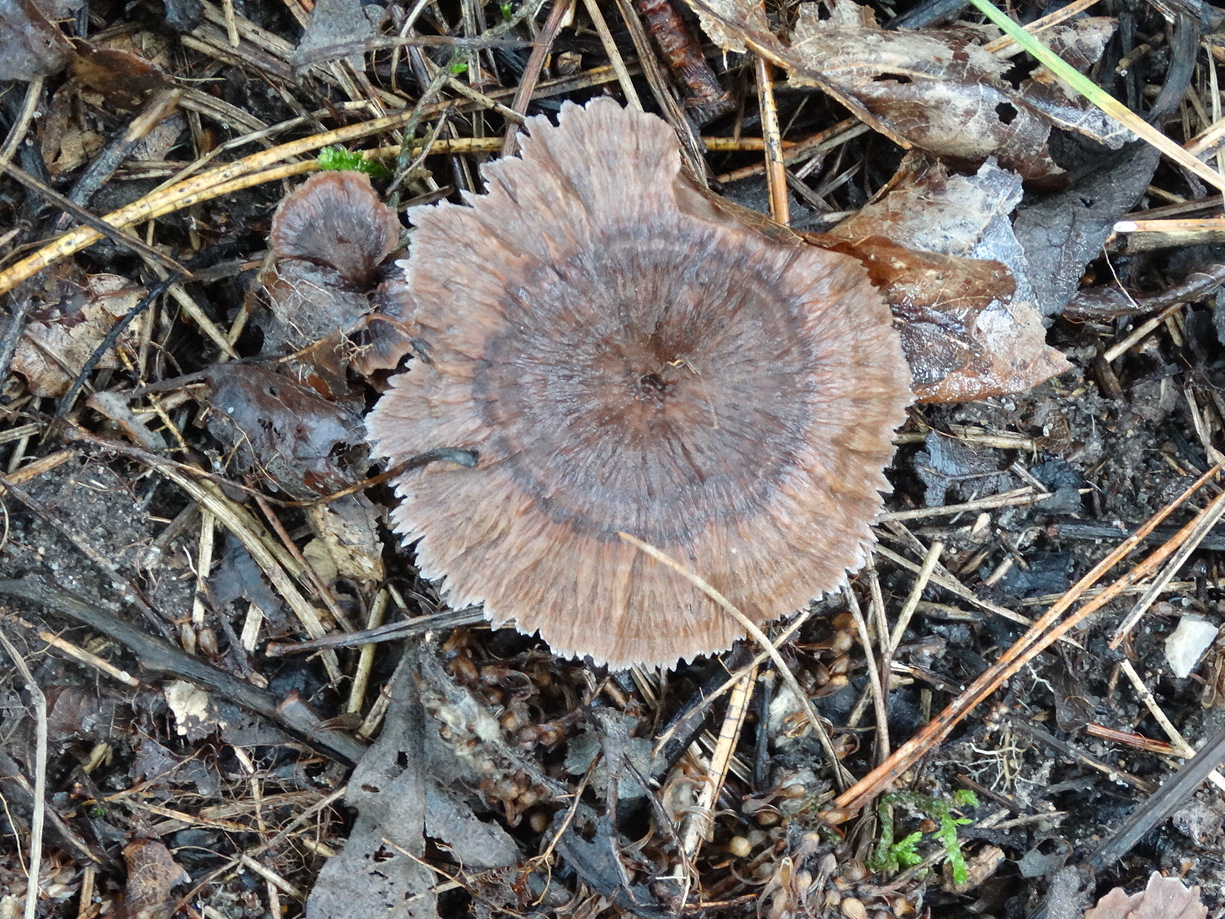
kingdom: Fungi
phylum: Basidiomycota
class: Agaricomycetes
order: Thelephorales
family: Thelephoraceae
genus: Thelephora
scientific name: Thelephora caryophyllea
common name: tragt-frynsesvamp
